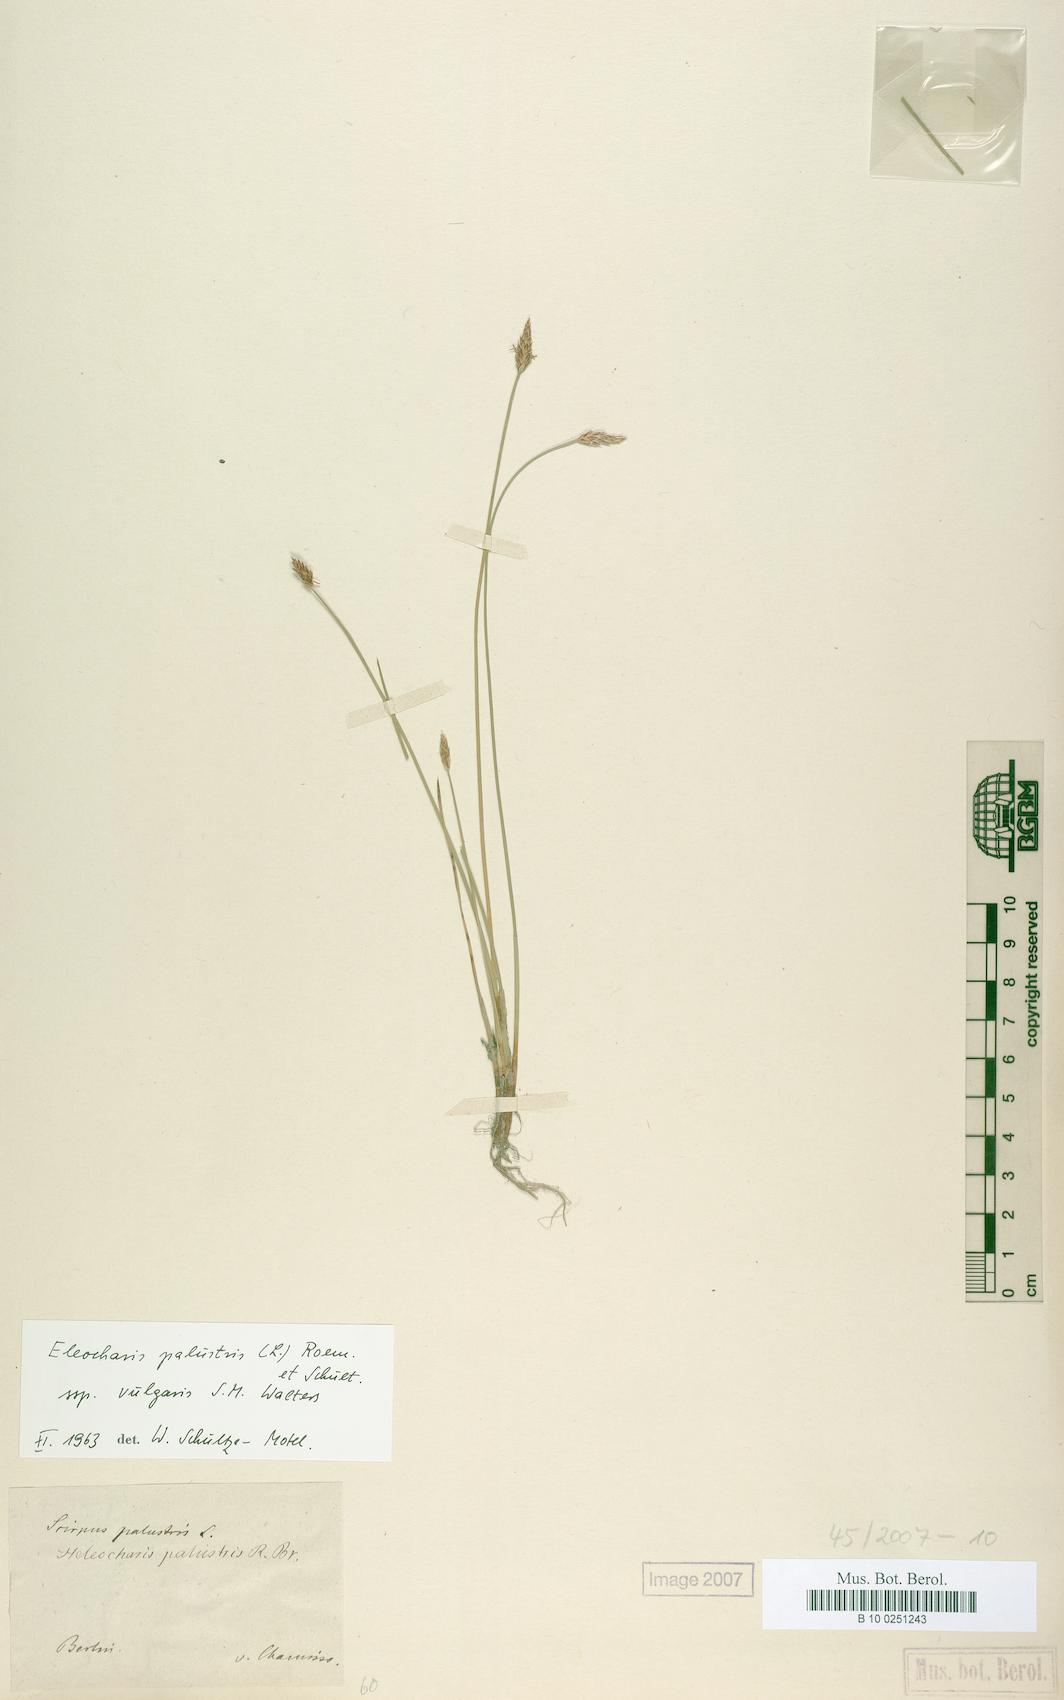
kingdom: Plantae
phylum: Tracheophyta
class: Liliopsida
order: Poales
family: Cyperaceae
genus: Eleocharis
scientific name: Eleocharis palustris
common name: Common spike-rush
